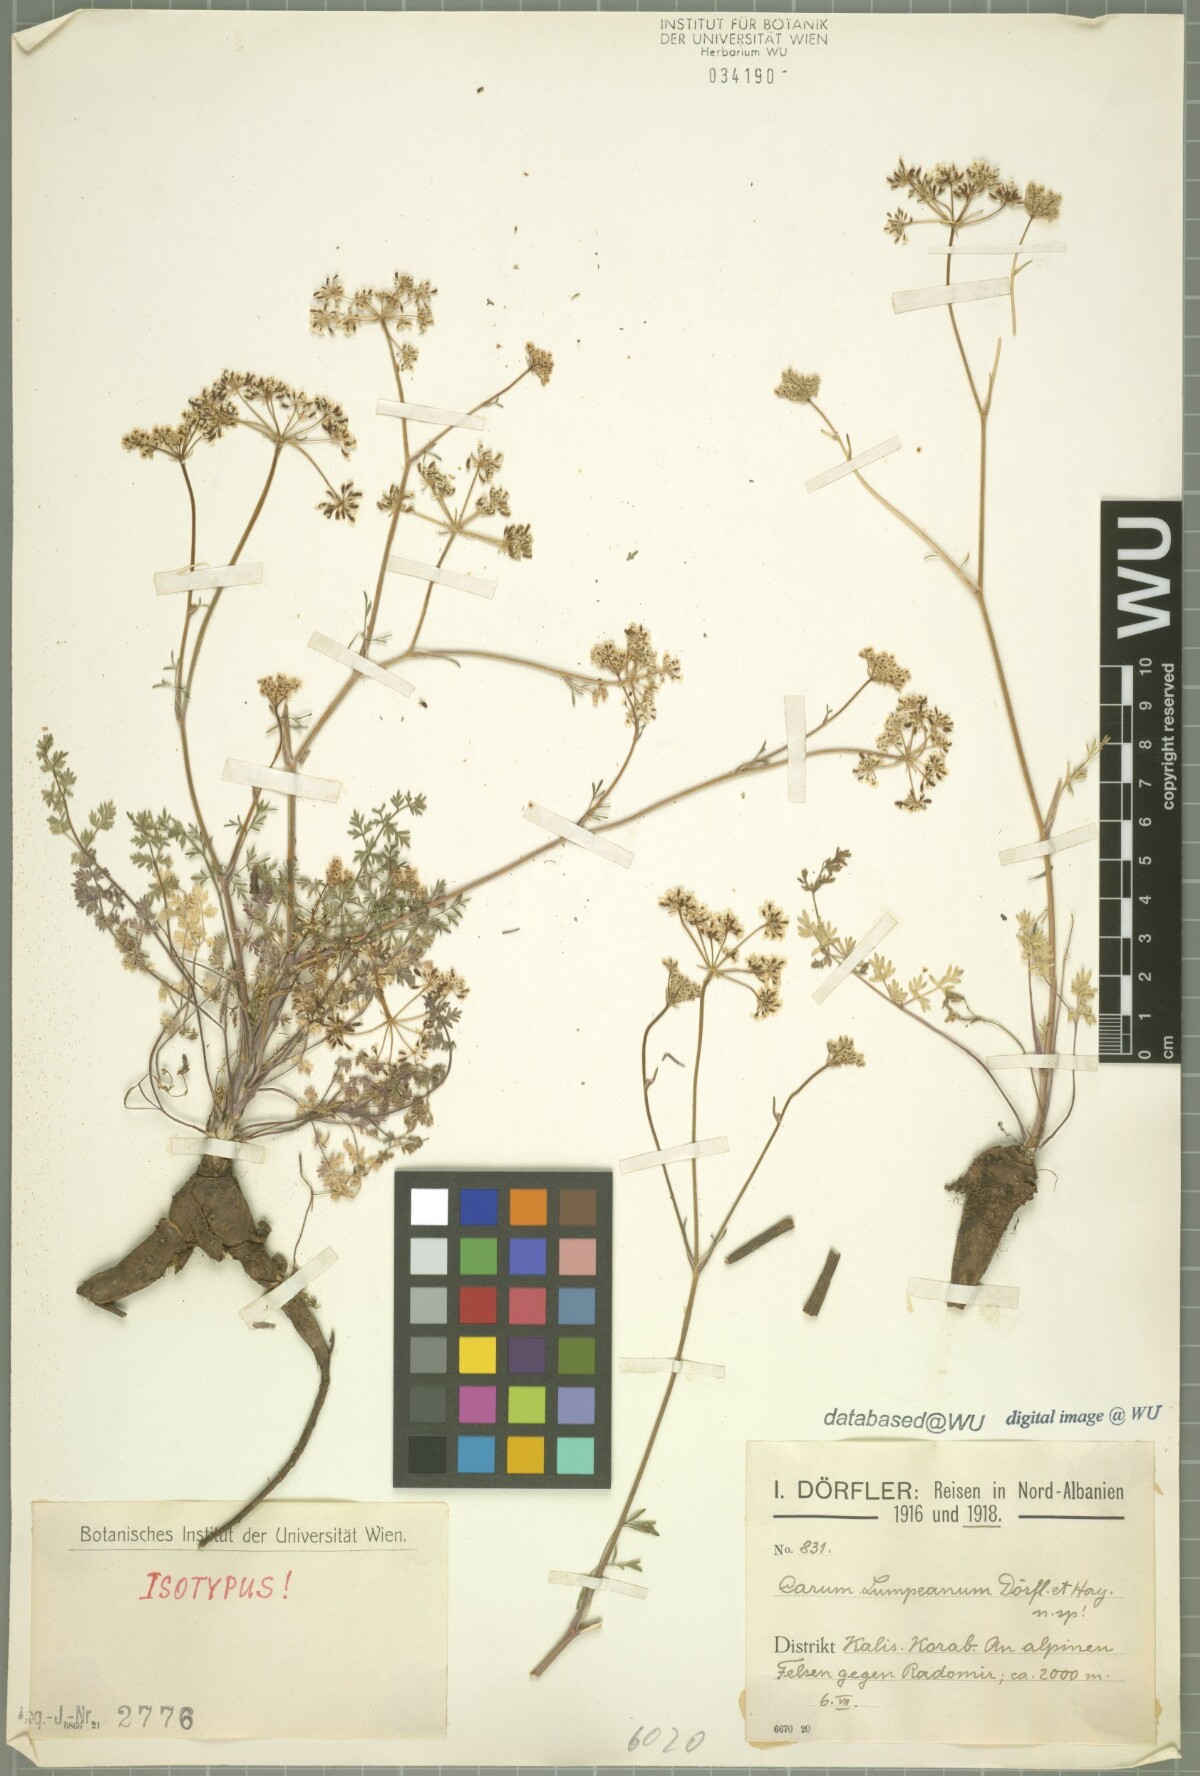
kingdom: Plantae
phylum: Tracheophyta
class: Magnoliopsida
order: Apiales
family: Apiaceae
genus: Hellenocarum
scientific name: Hellenocarum strictum
